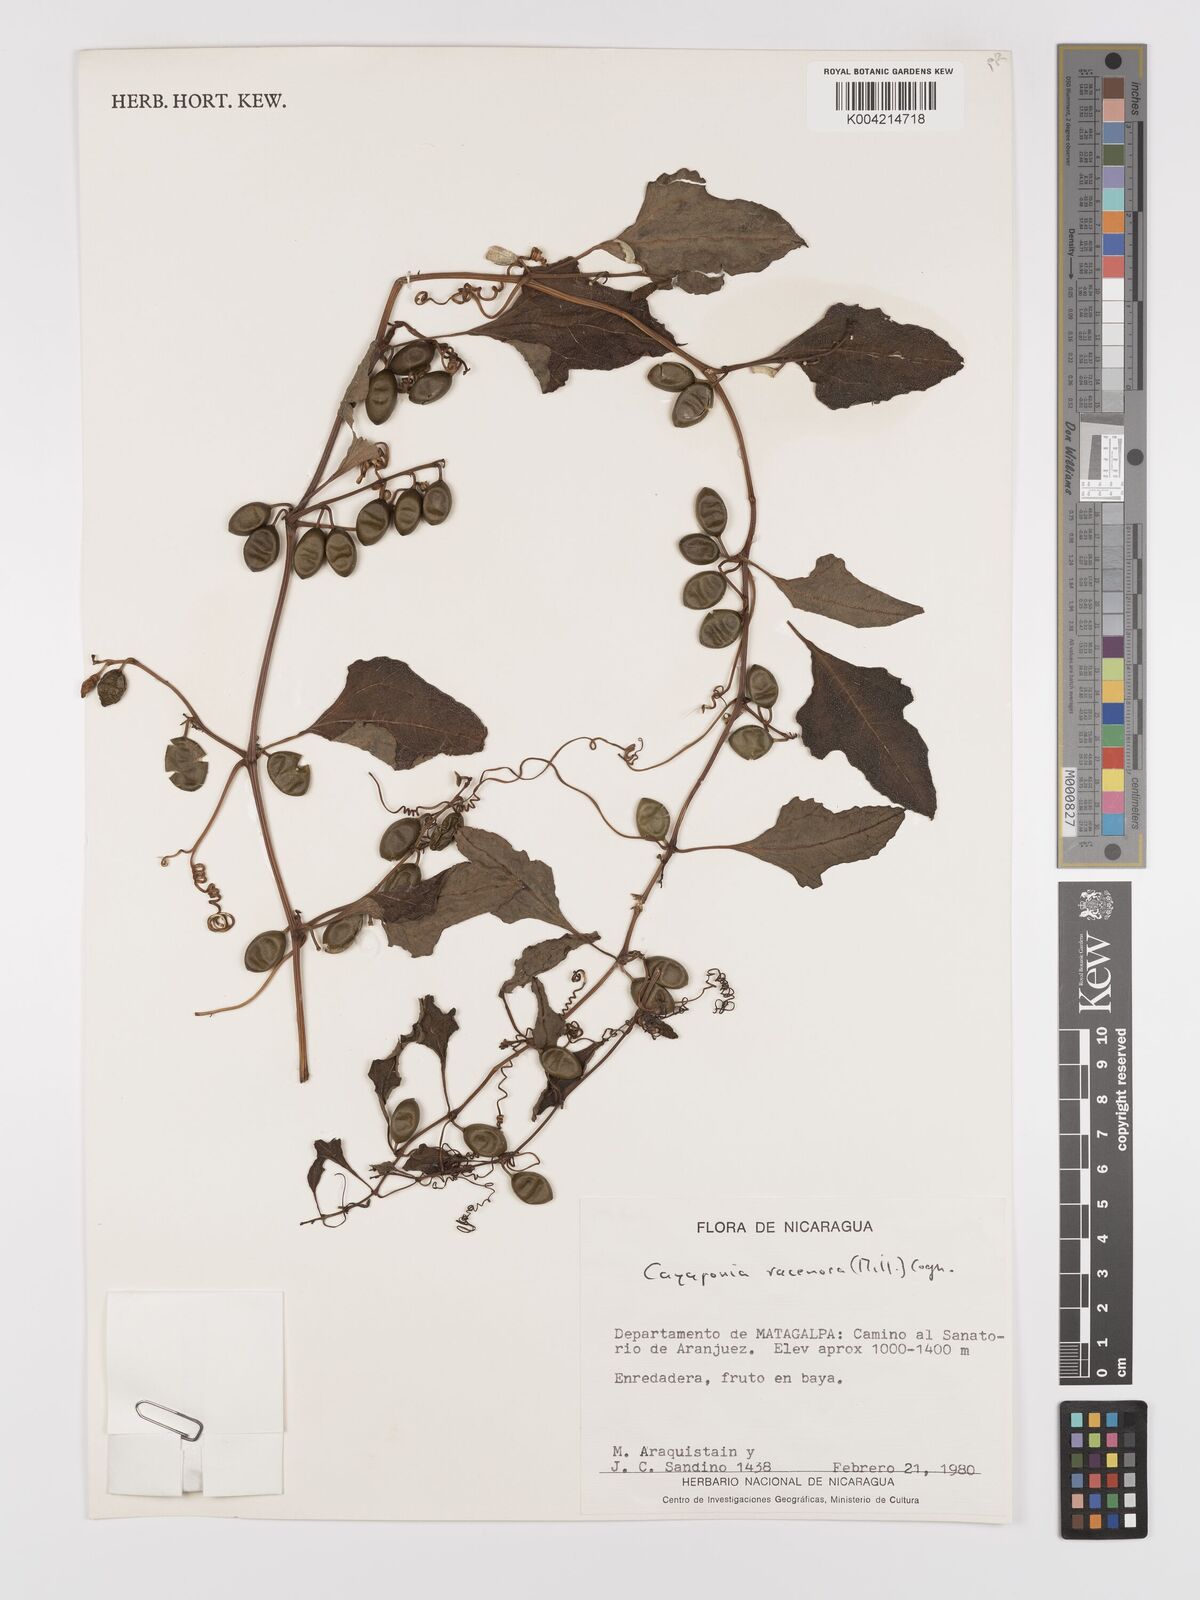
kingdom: Plantae
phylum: Tracheophyta
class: Magnoliopsida
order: Cucurbitales
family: Cucurbitaceae
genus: Cayaponia
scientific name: Cayaponia racemosa
